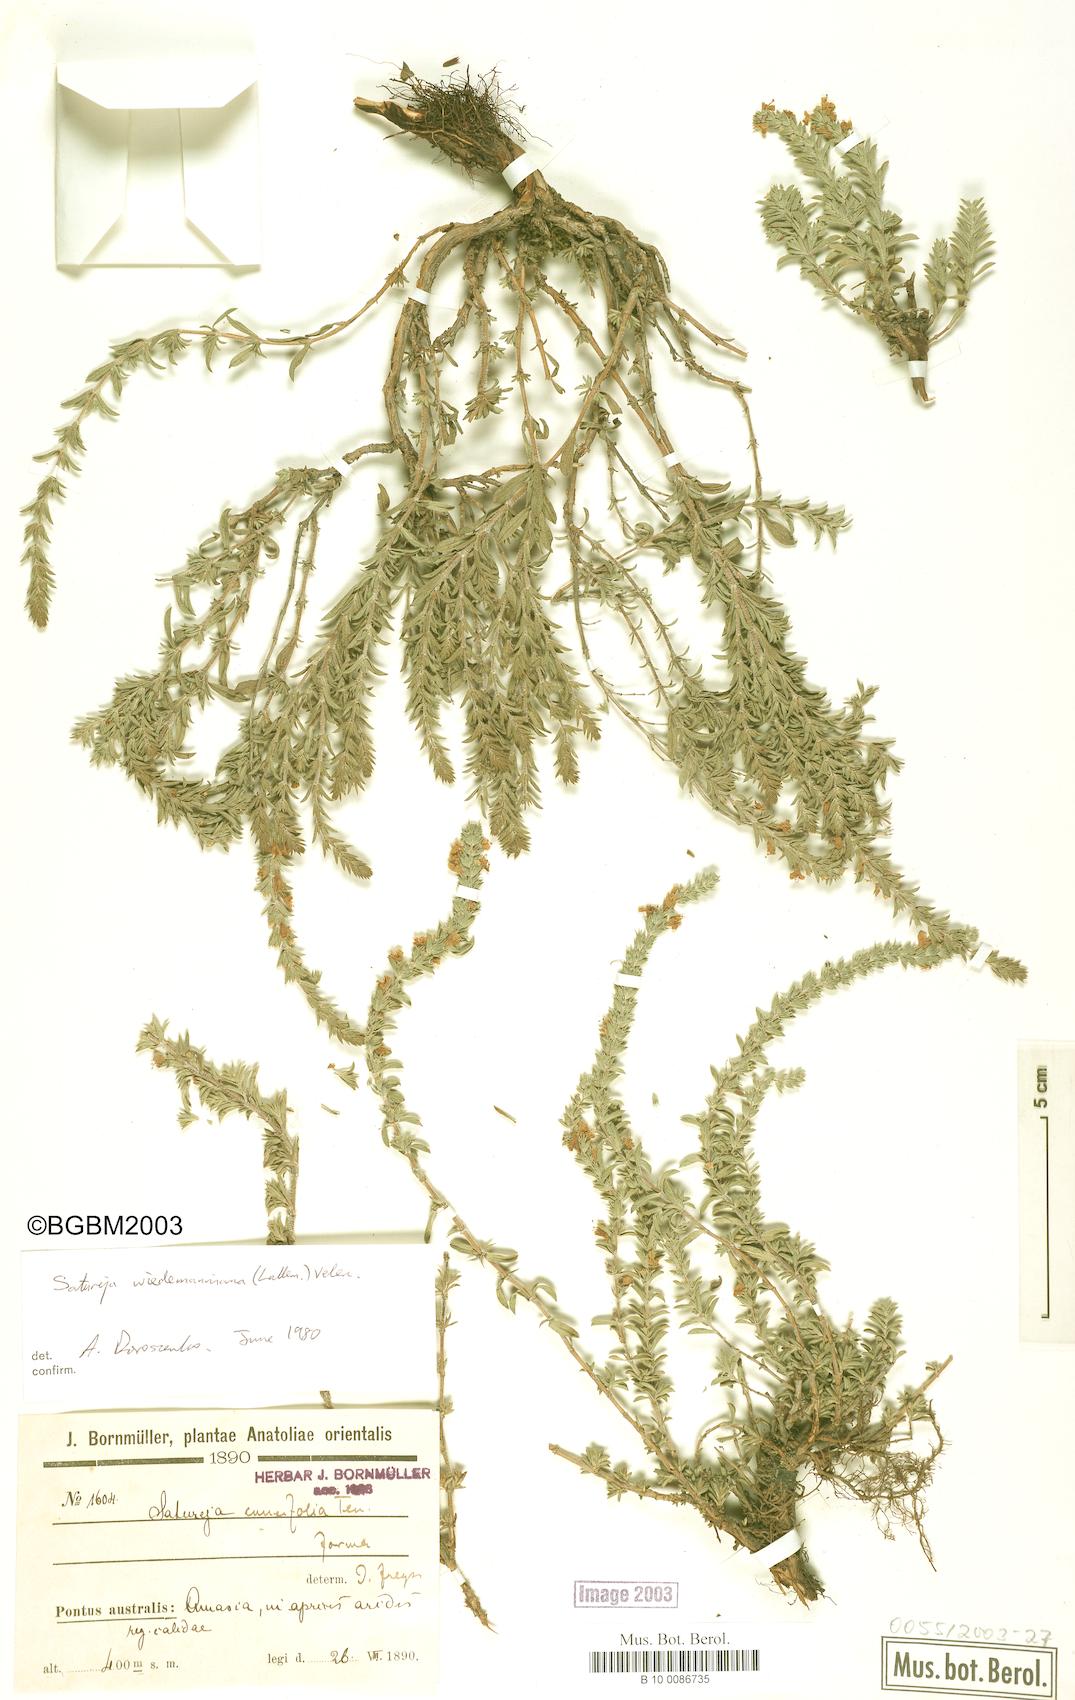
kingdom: Plantae
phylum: Tracheophyta
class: Magnoliopsida
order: Lamiales
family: Lamiaceae
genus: Satureja
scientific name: Satureja wiedemanniana
